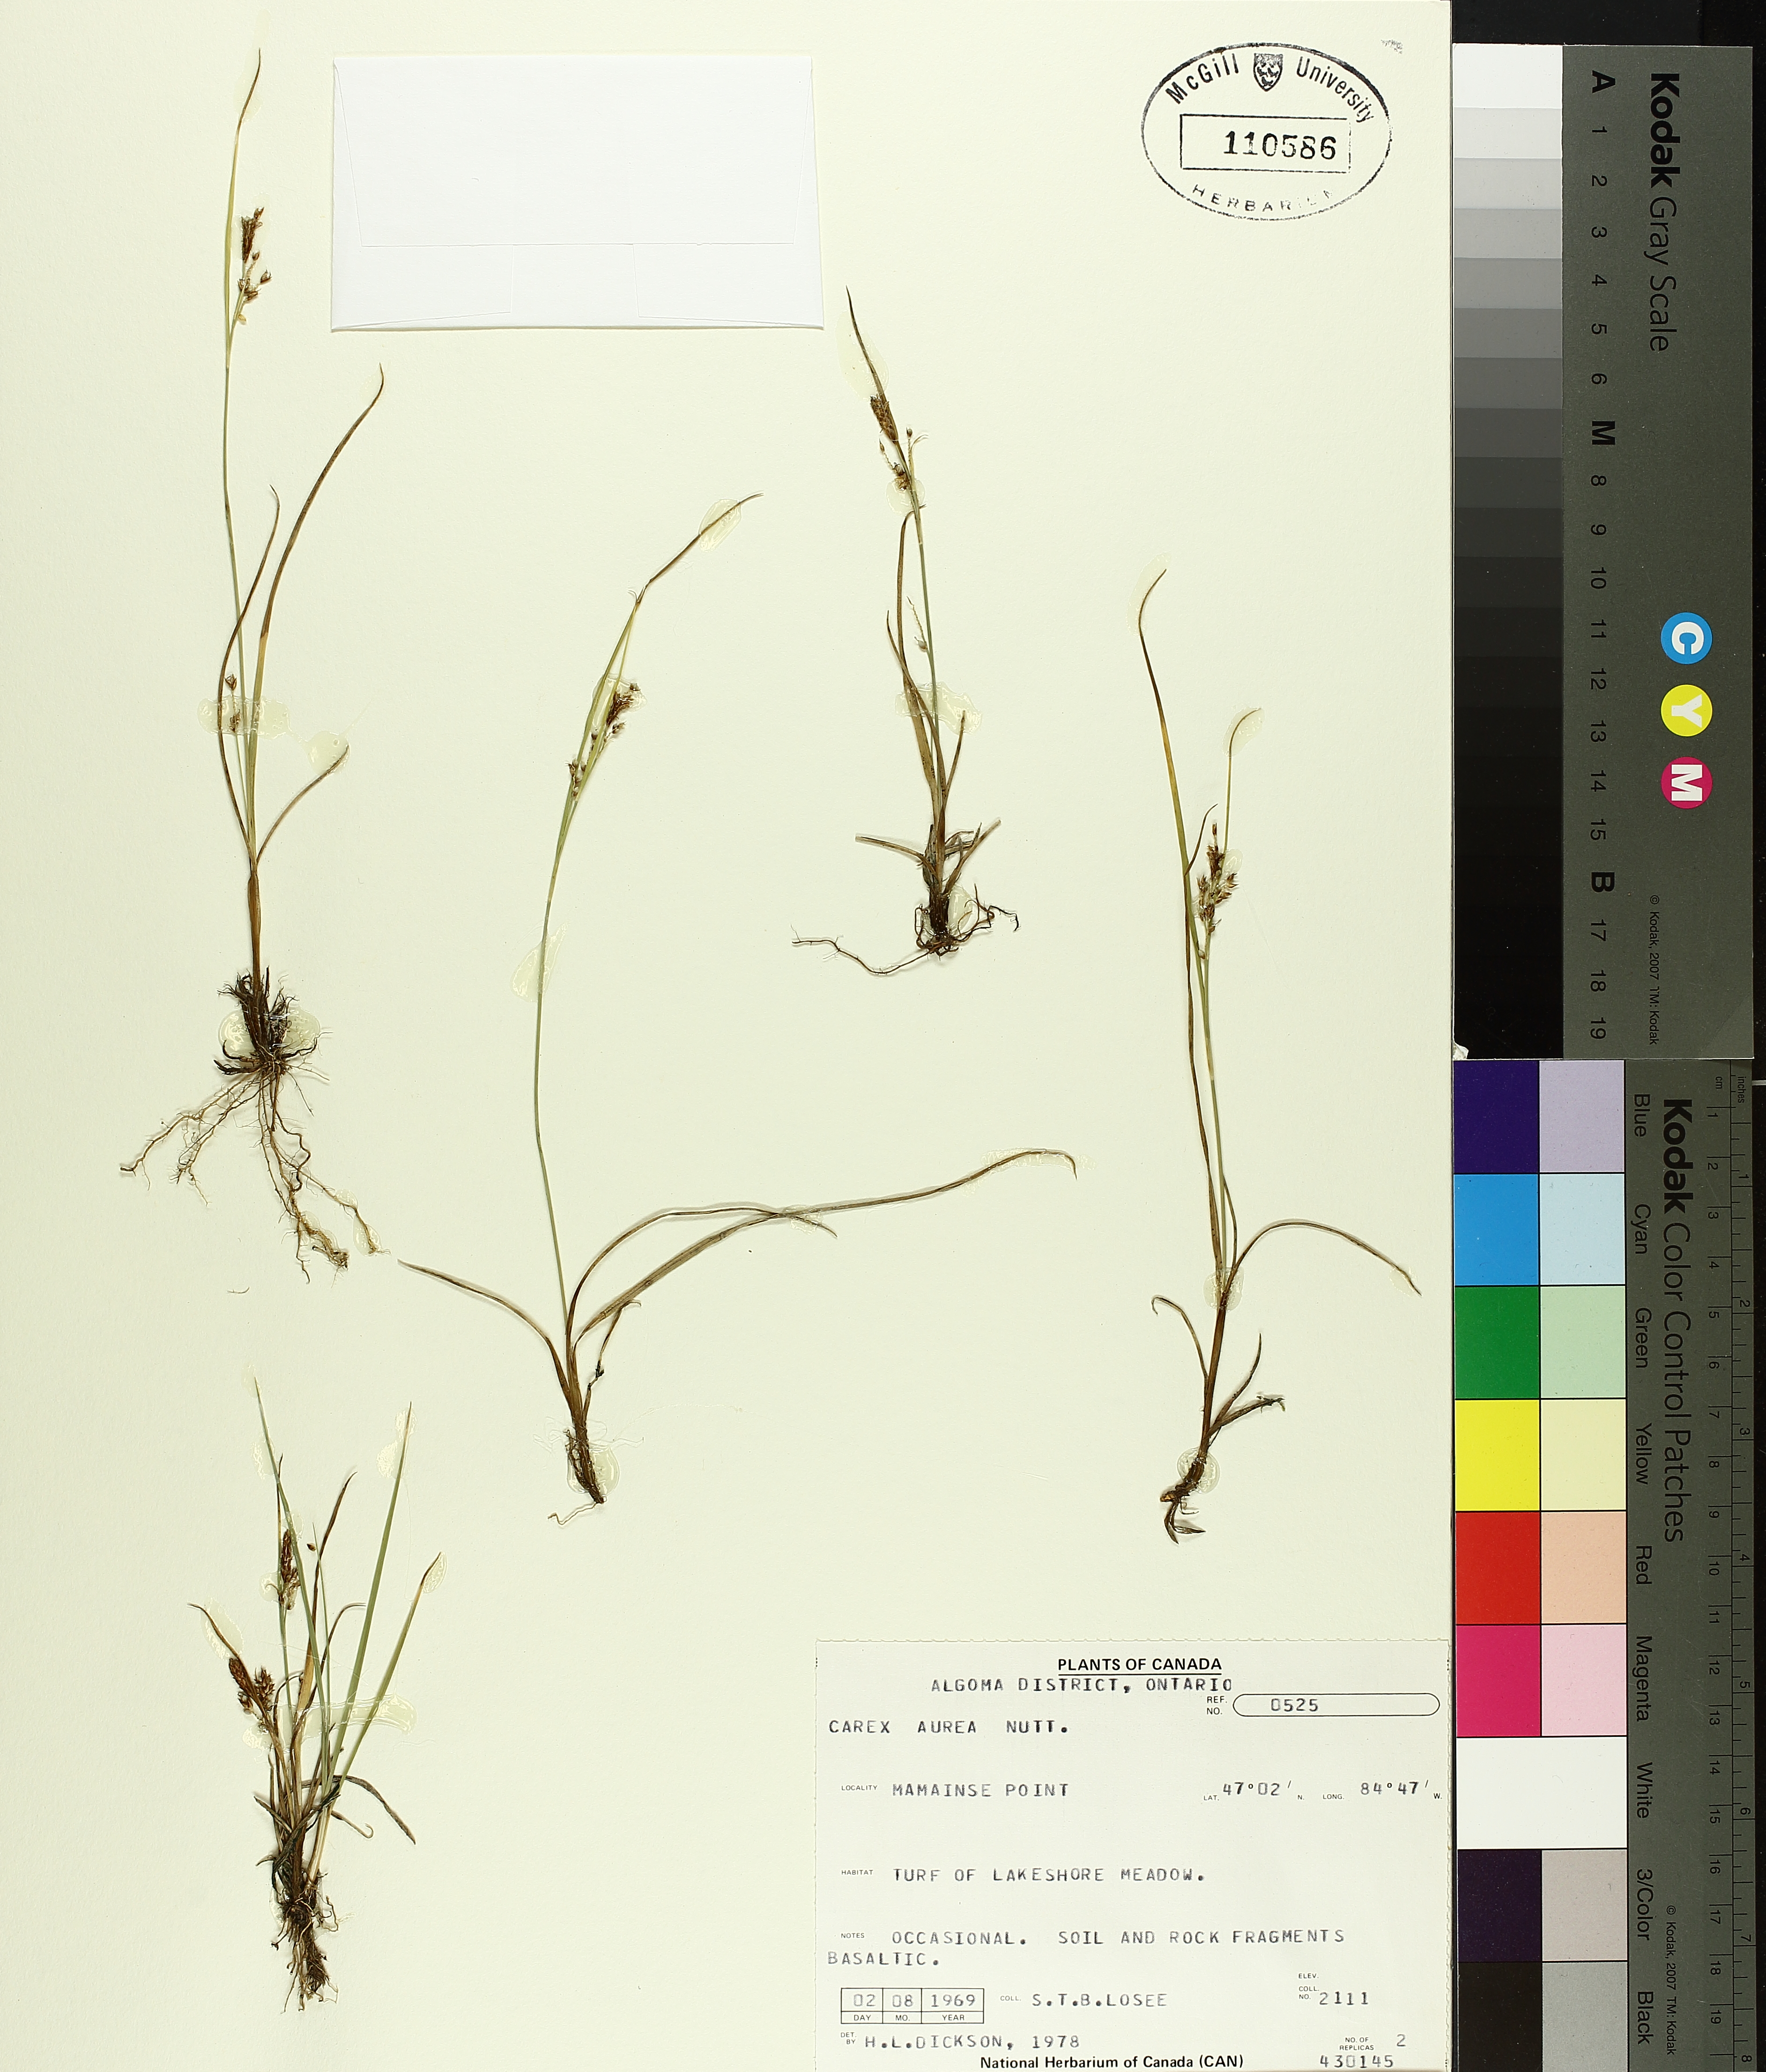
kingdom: Plantae
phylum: Tracheophyta
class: Liliopsida
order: Poales
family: Cyperaceae
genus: Carex
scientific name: Carex aurea
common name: Golden sedge
